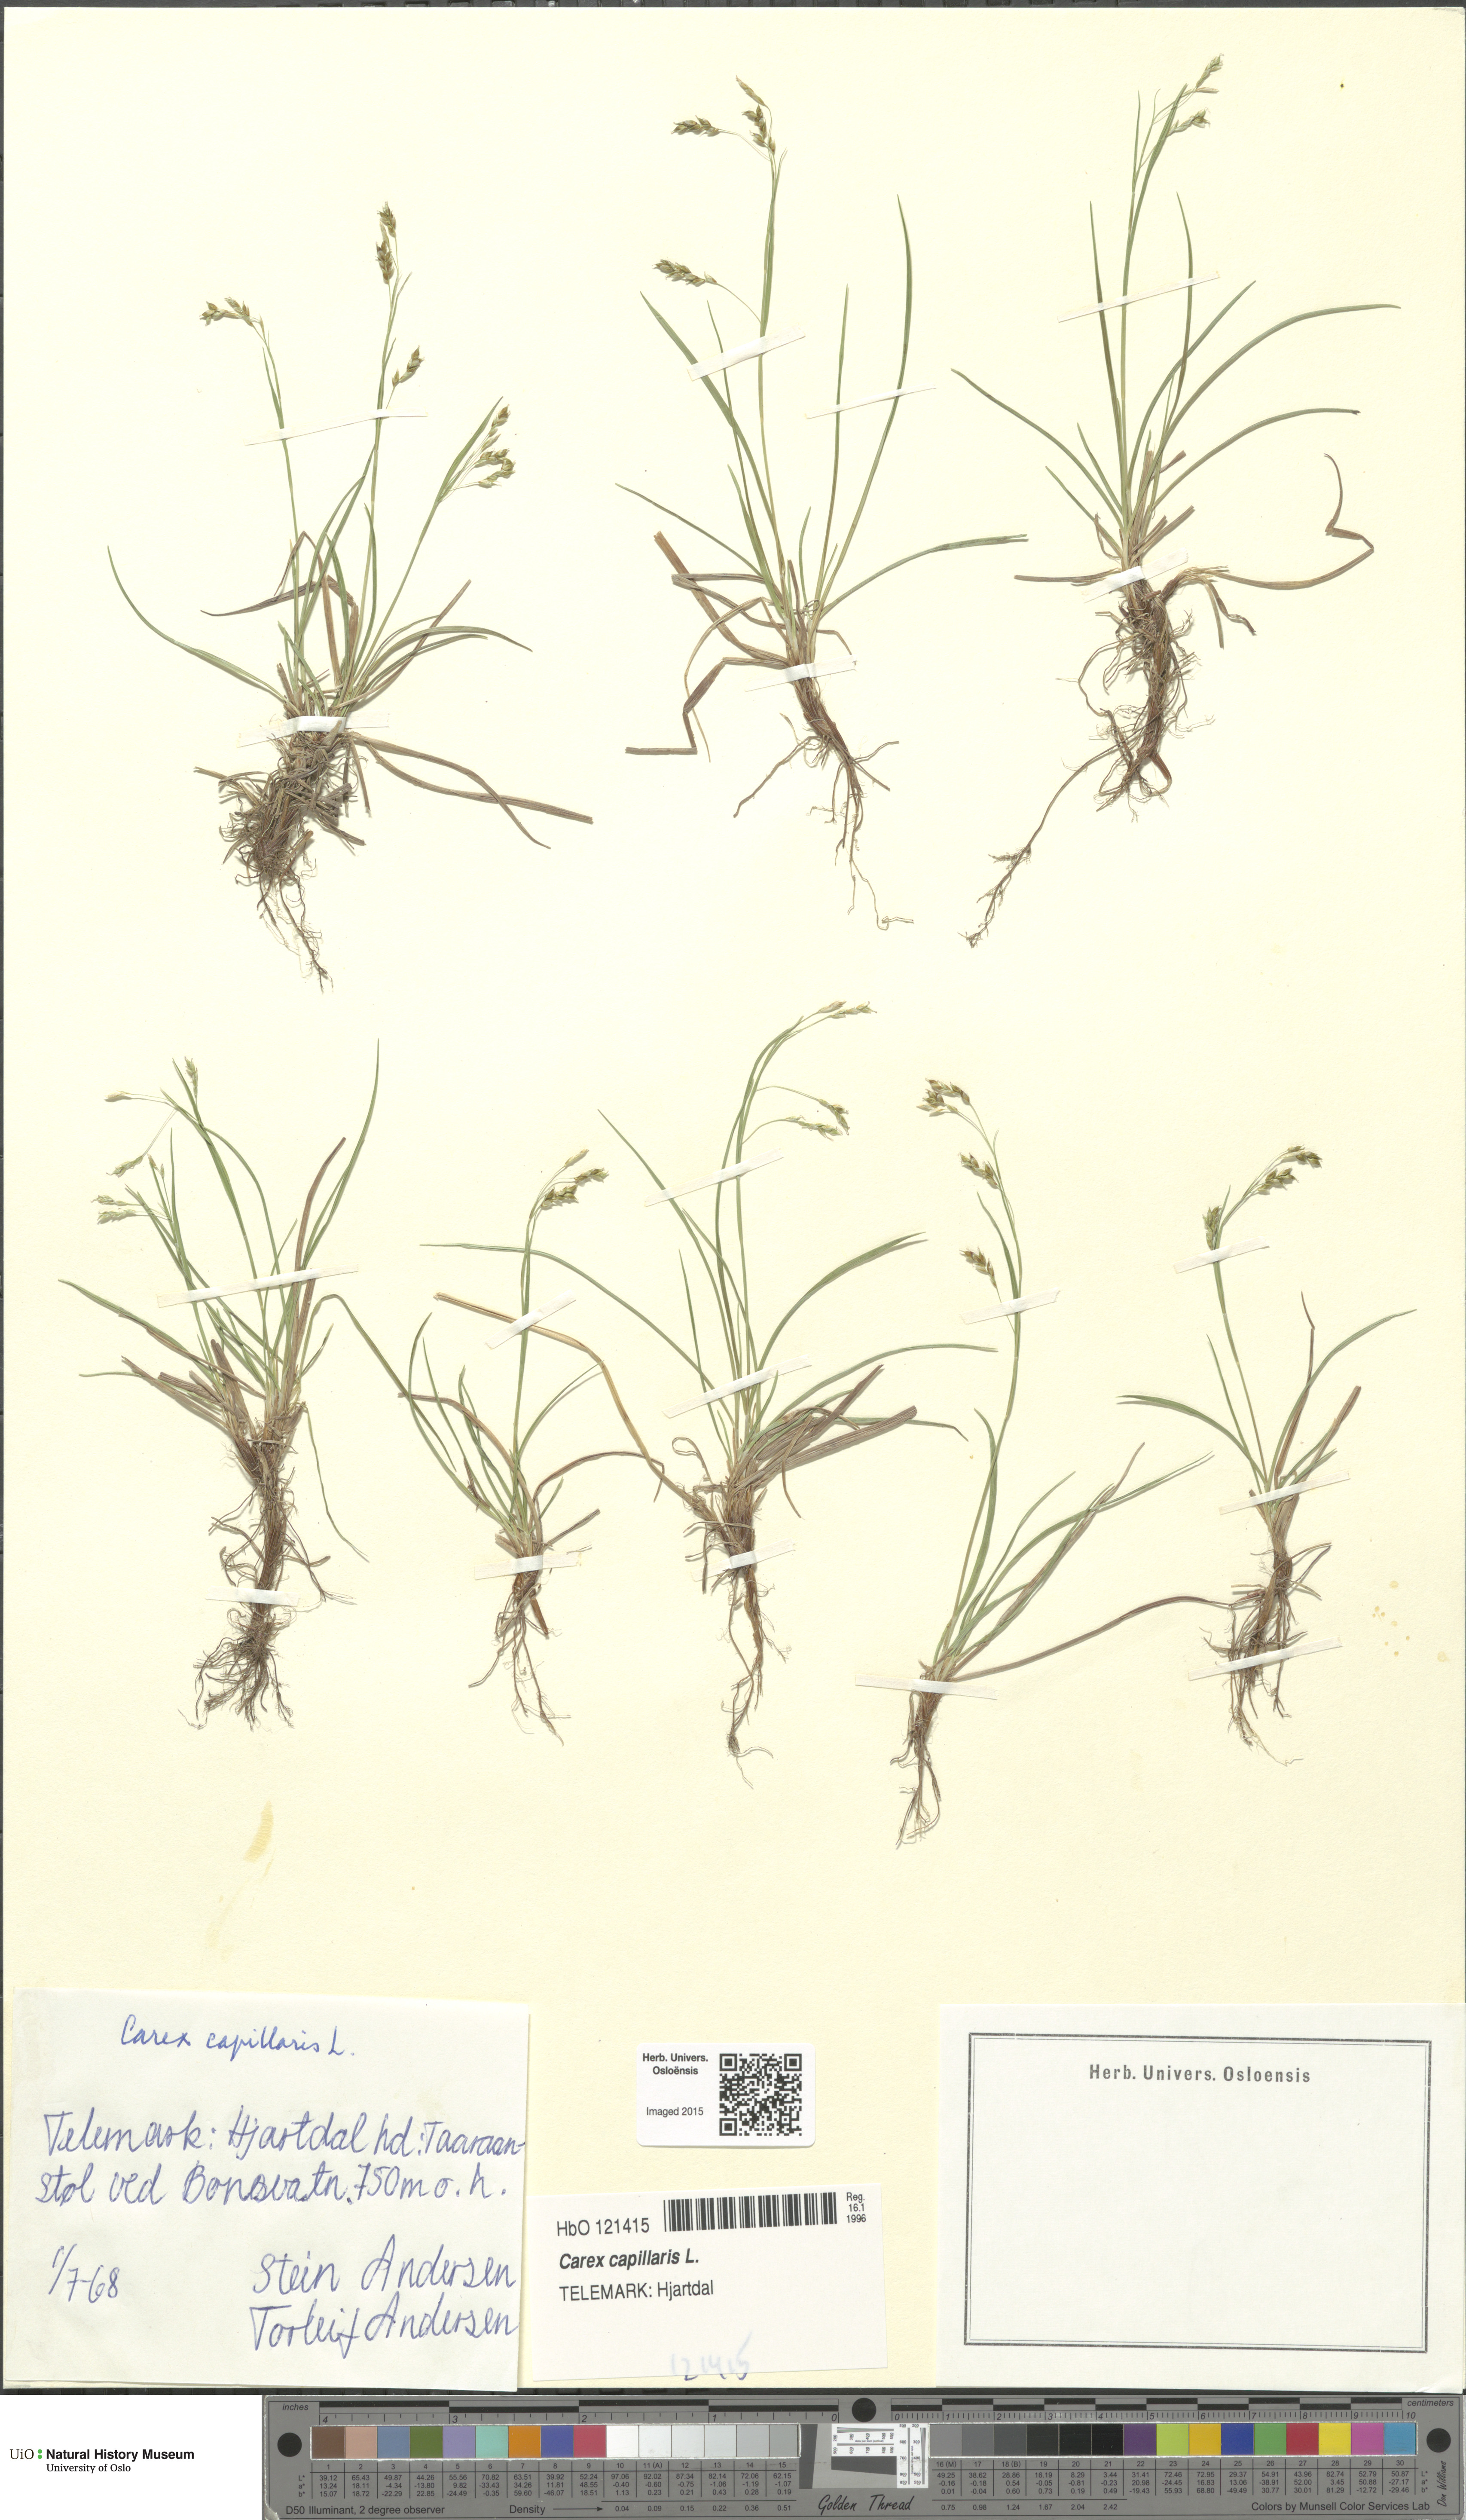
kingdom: Plantae
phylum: Tracheophyta
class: Liliopsida
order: Poales
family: Cyperaceae
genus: Carex
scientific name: Carex capillaris
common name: Hair sedge
